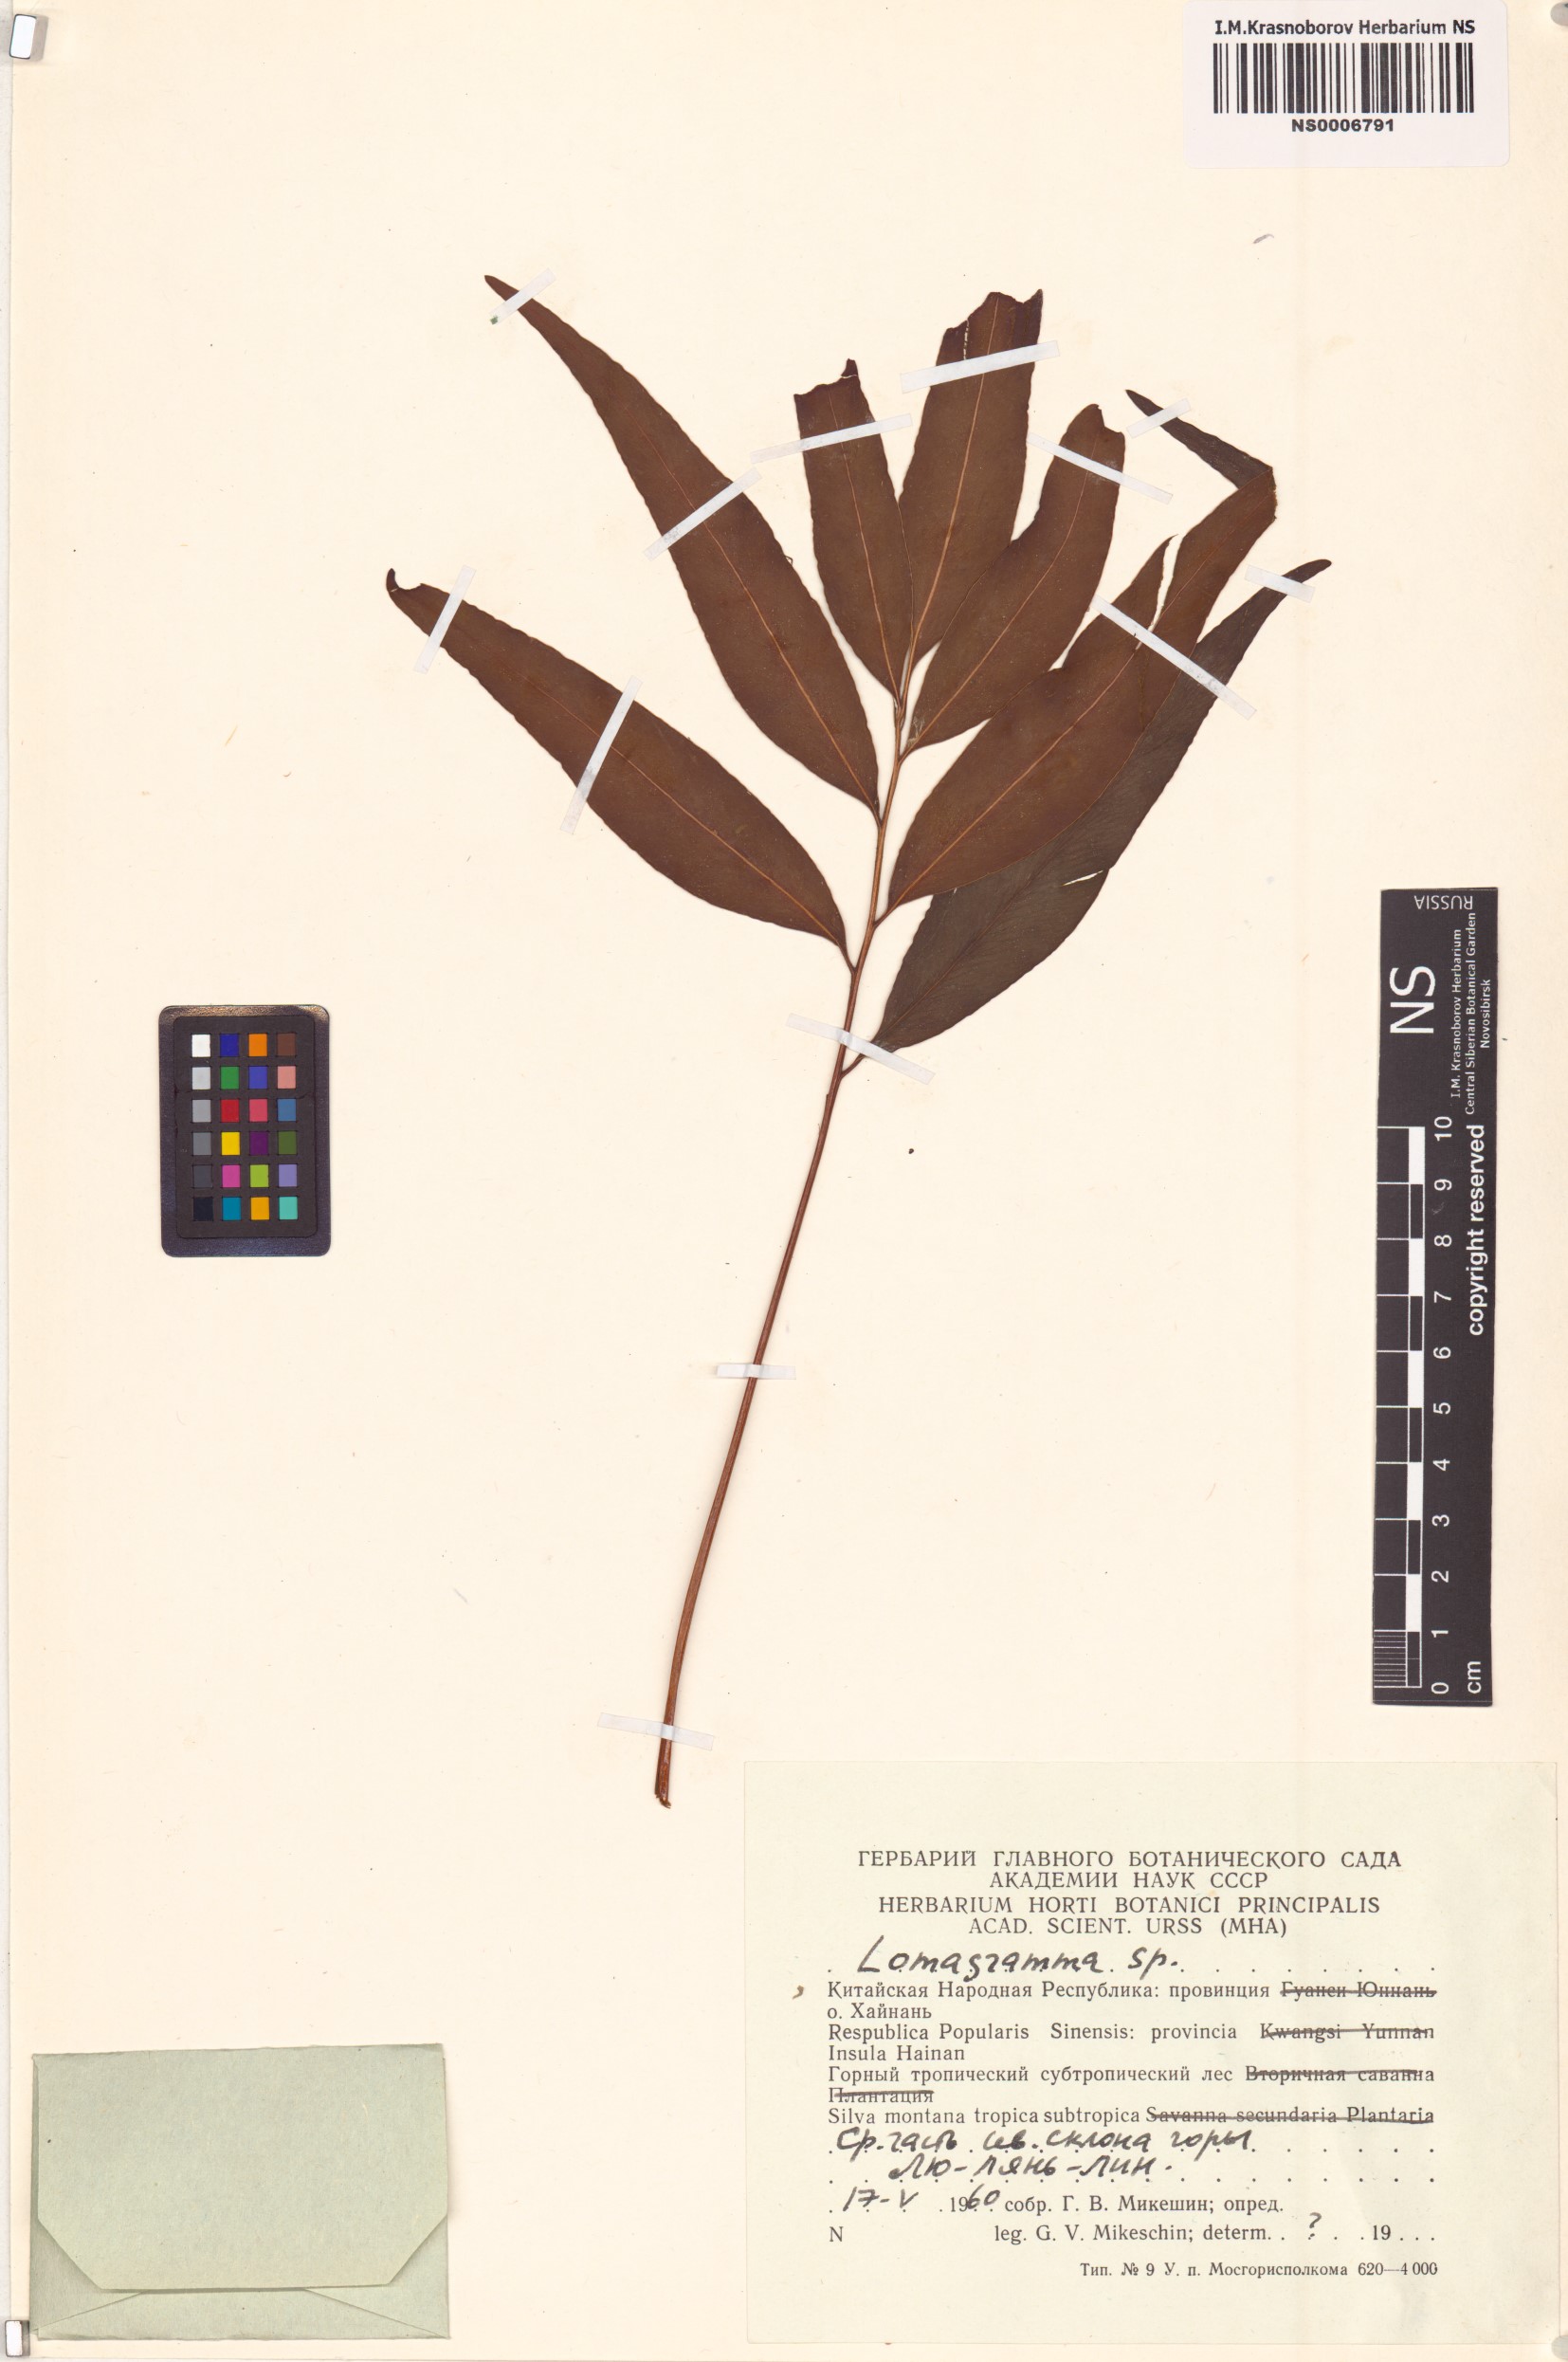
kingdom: Plantae
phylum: Tracheophyta
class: Polypodiopsida
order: Polypodiales
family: Dryopteridaceae
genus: Lomagramma
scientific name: Lomagramma
